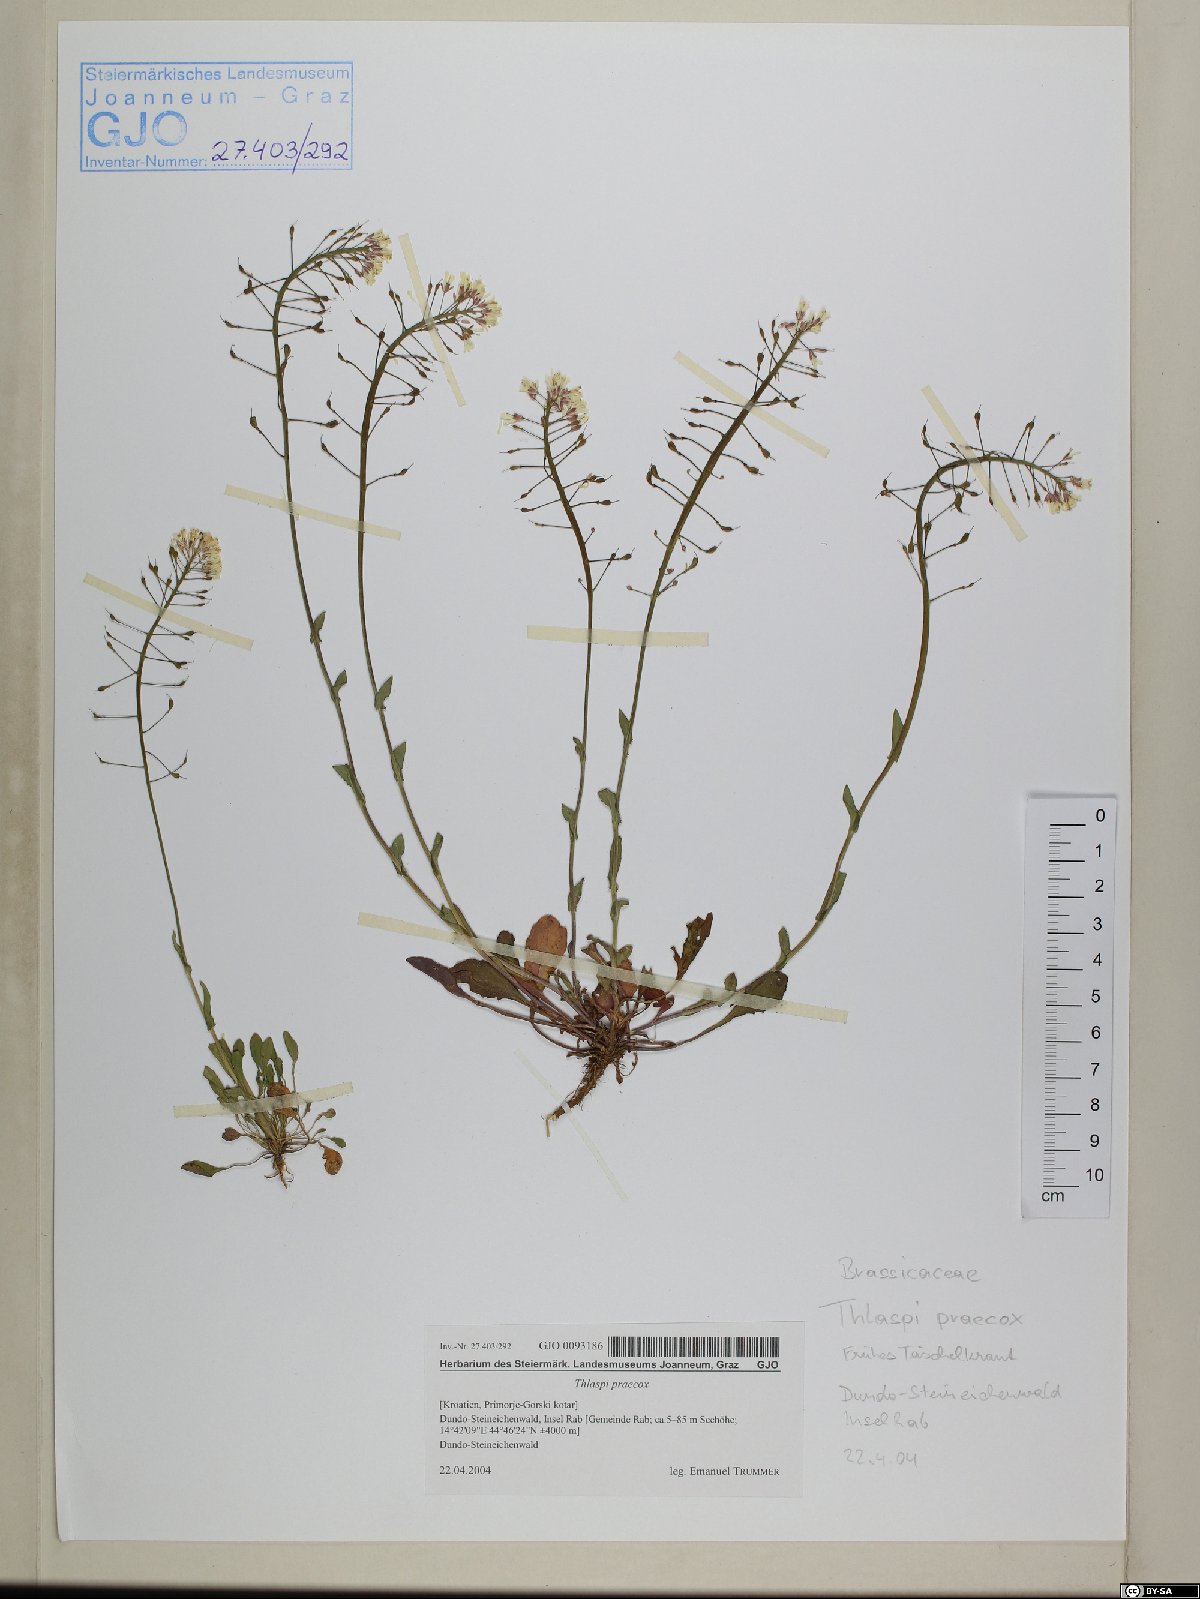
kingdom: Plantae
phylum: Tracheophyta
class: Magnoliopsida
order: Brassicales
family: Brassicaceae
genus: Noccaea
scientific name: Noccaea praecox
